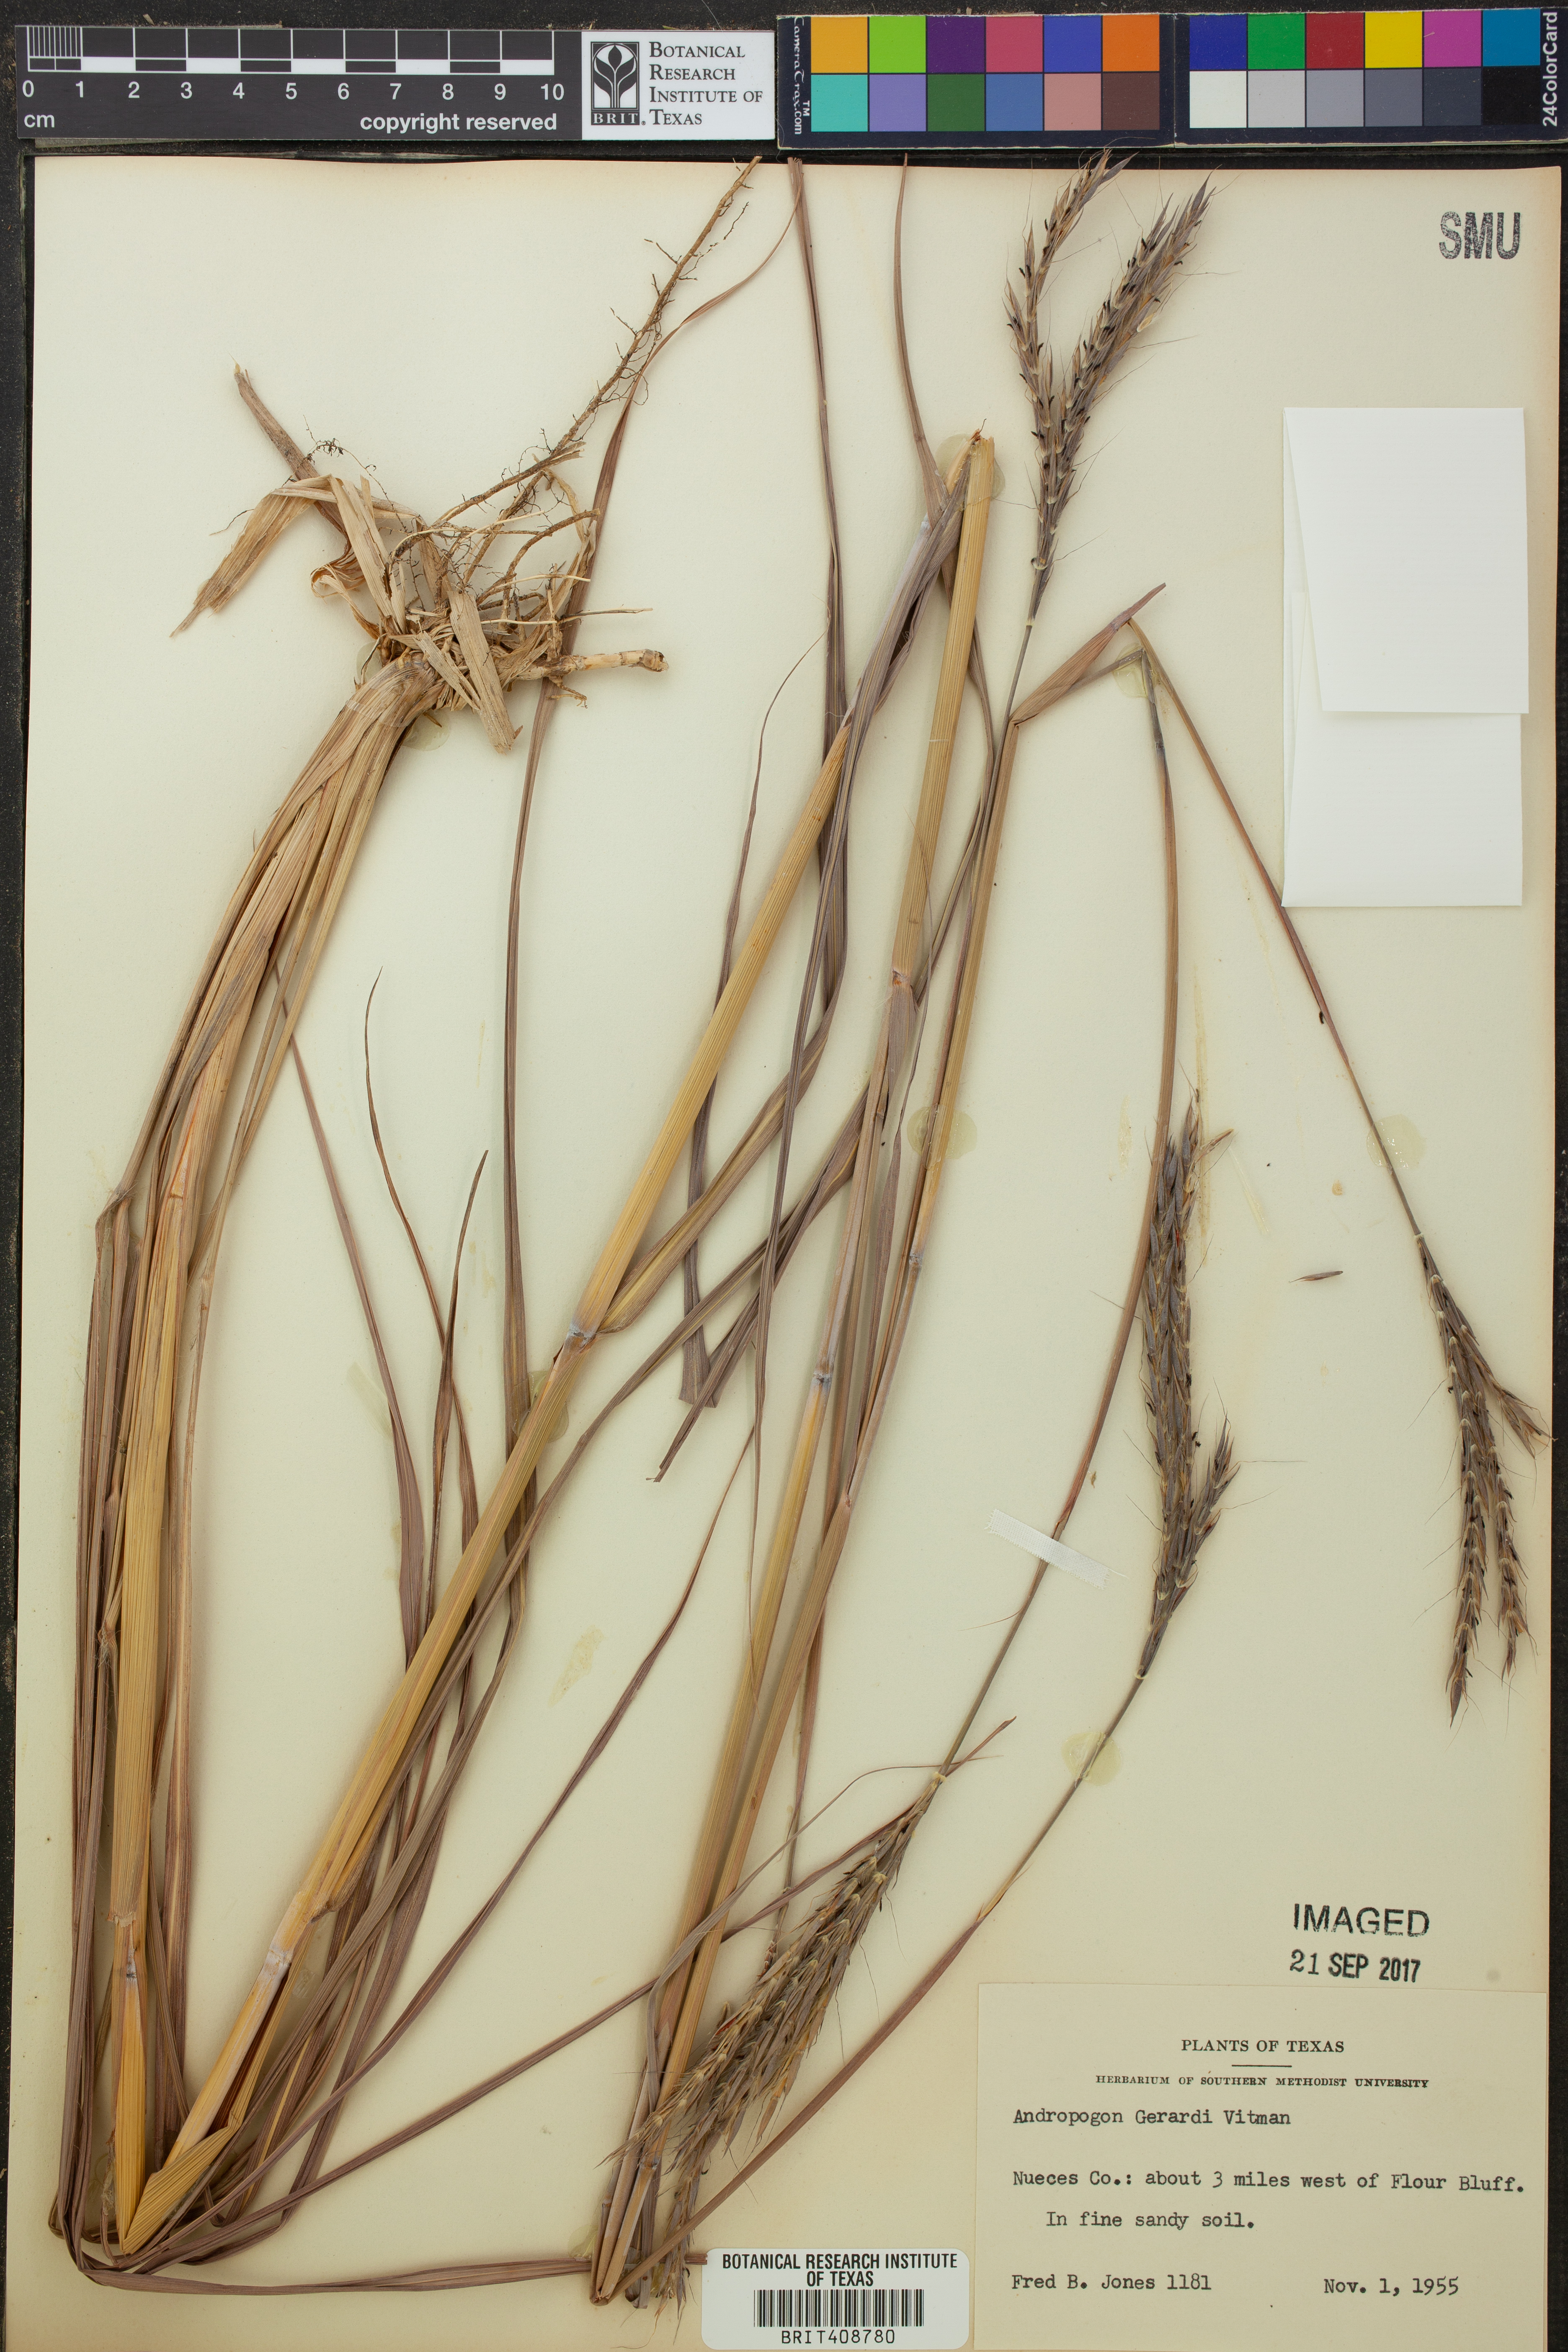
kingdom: Plantae
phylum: Tracheophyta
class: Liliopsida
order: Poales
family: Poaceae
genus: Andropogon
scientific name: Andropogon gerardi
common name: Big bluestem
